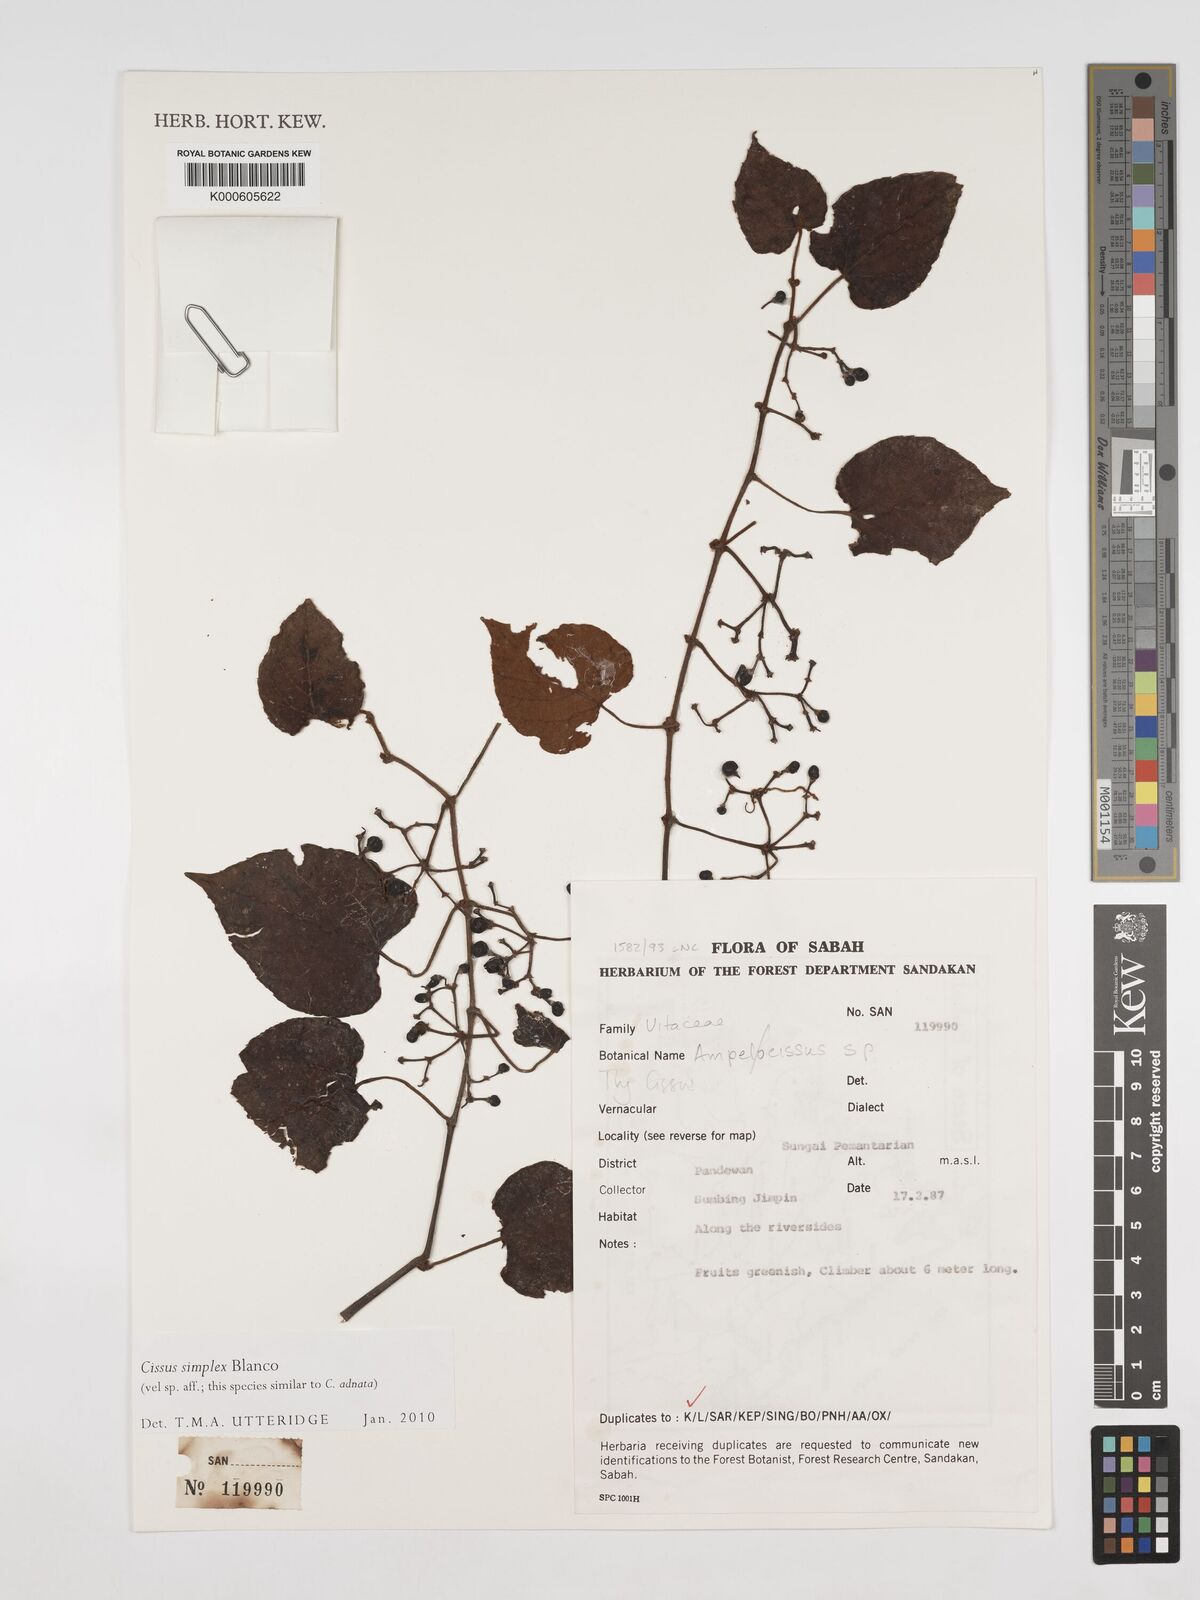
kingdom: Plantae
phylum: Tracheophyta
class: Magnoliopsida
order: Vitales
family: Vitaceae
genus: Cissus
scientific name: Cissus aristata
